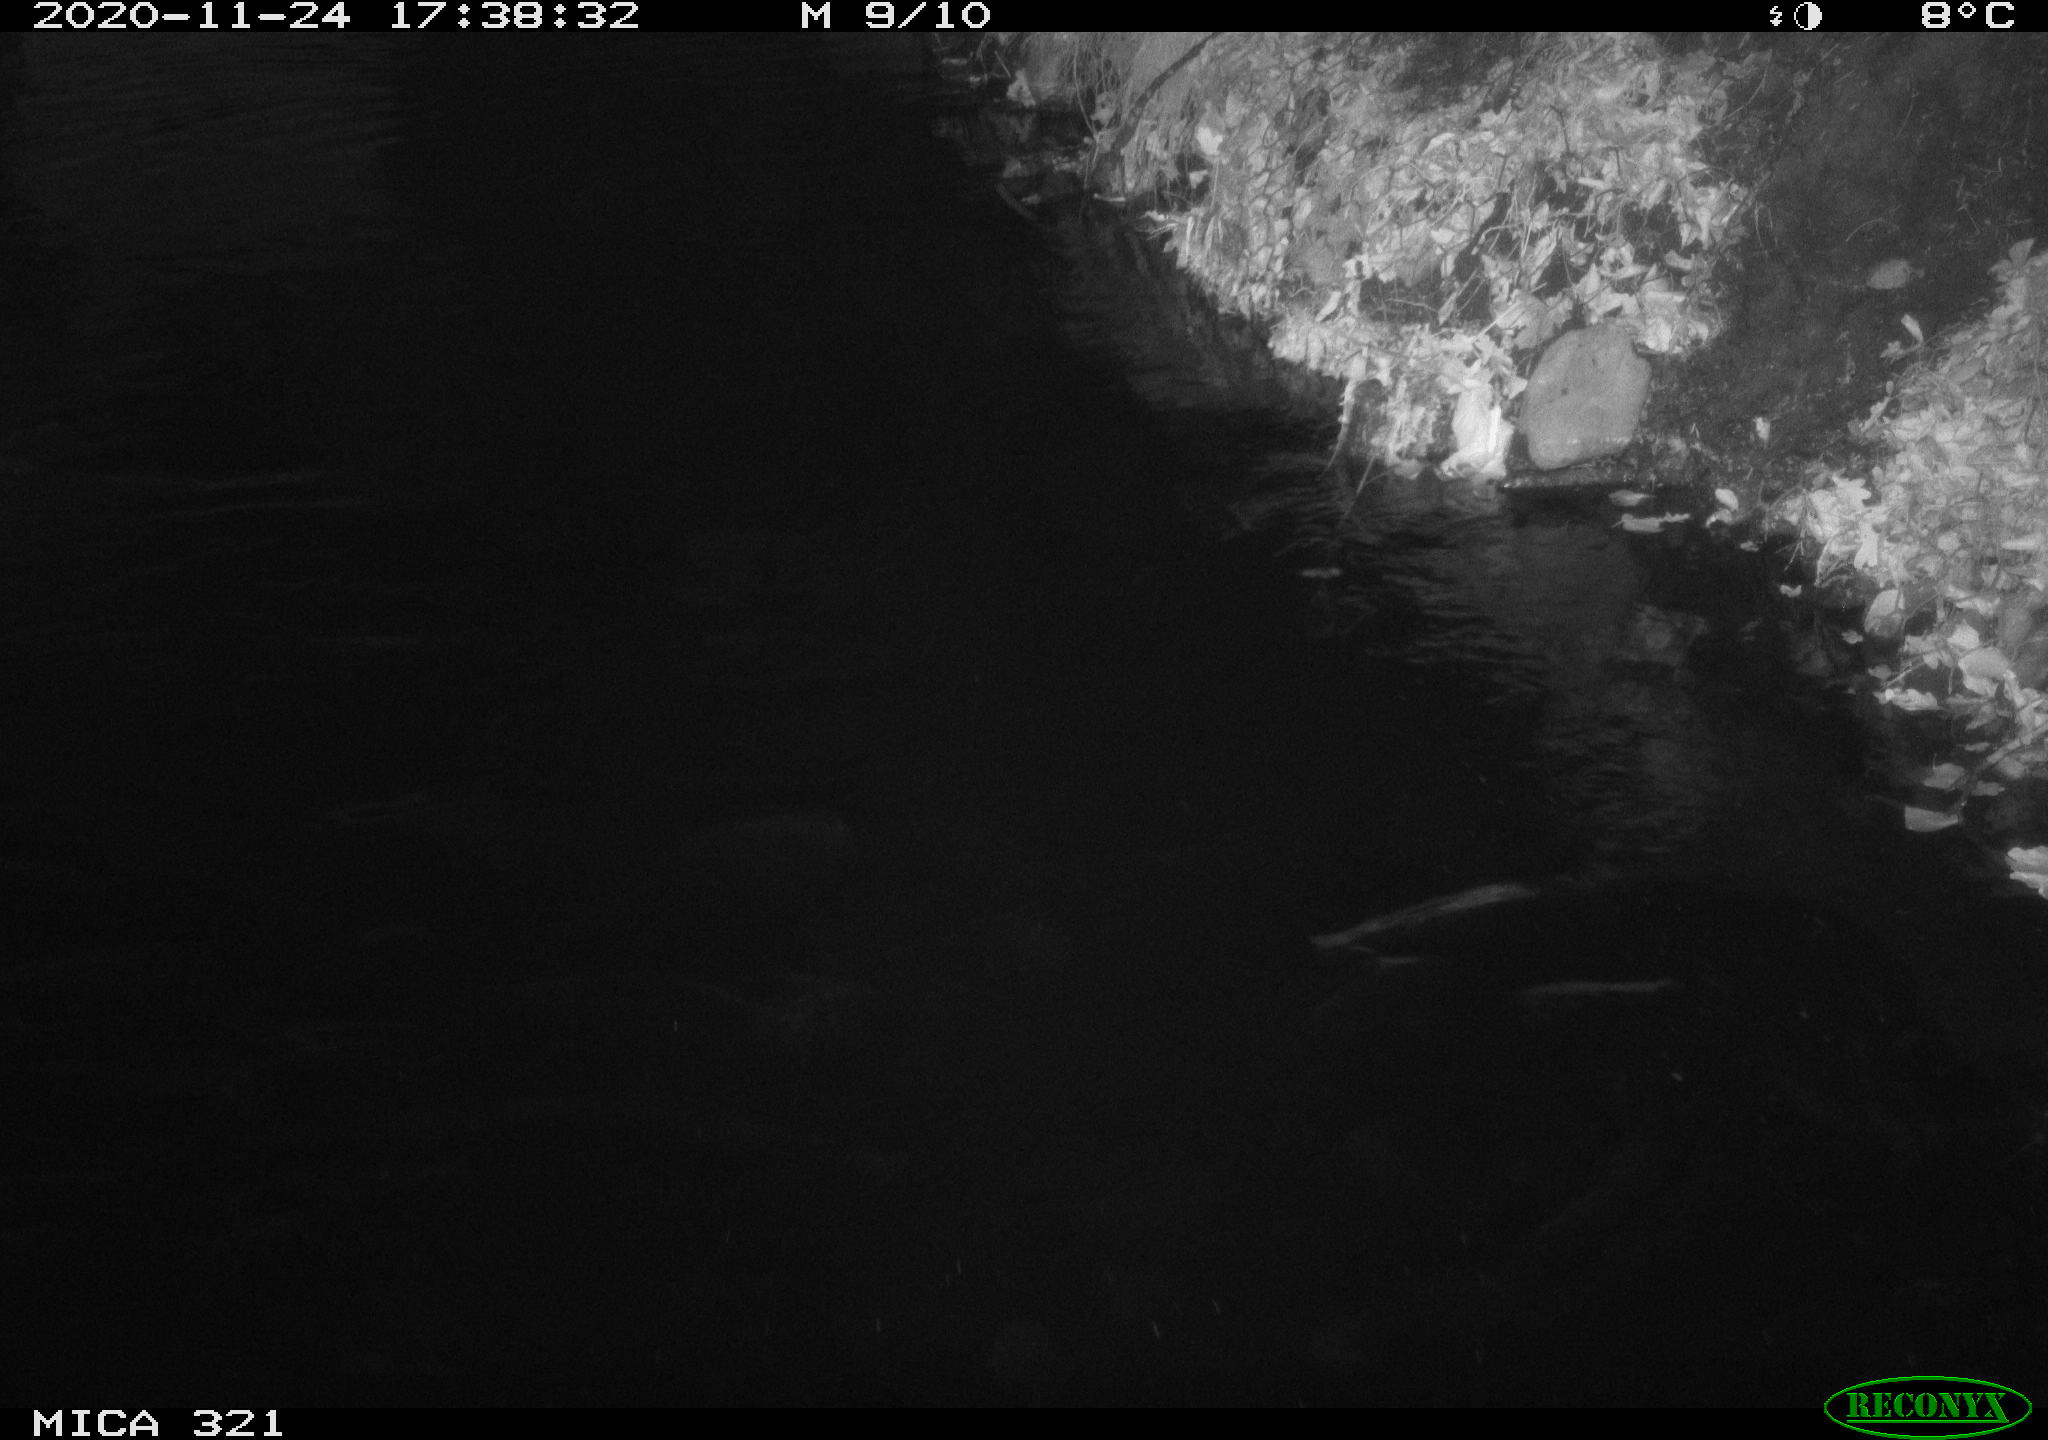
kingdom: Animalia
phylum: Chordata
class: Aves
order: Anseriformes
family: Anatidae
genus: Anas
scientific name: Anas platyrhynchos
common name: Mallard
